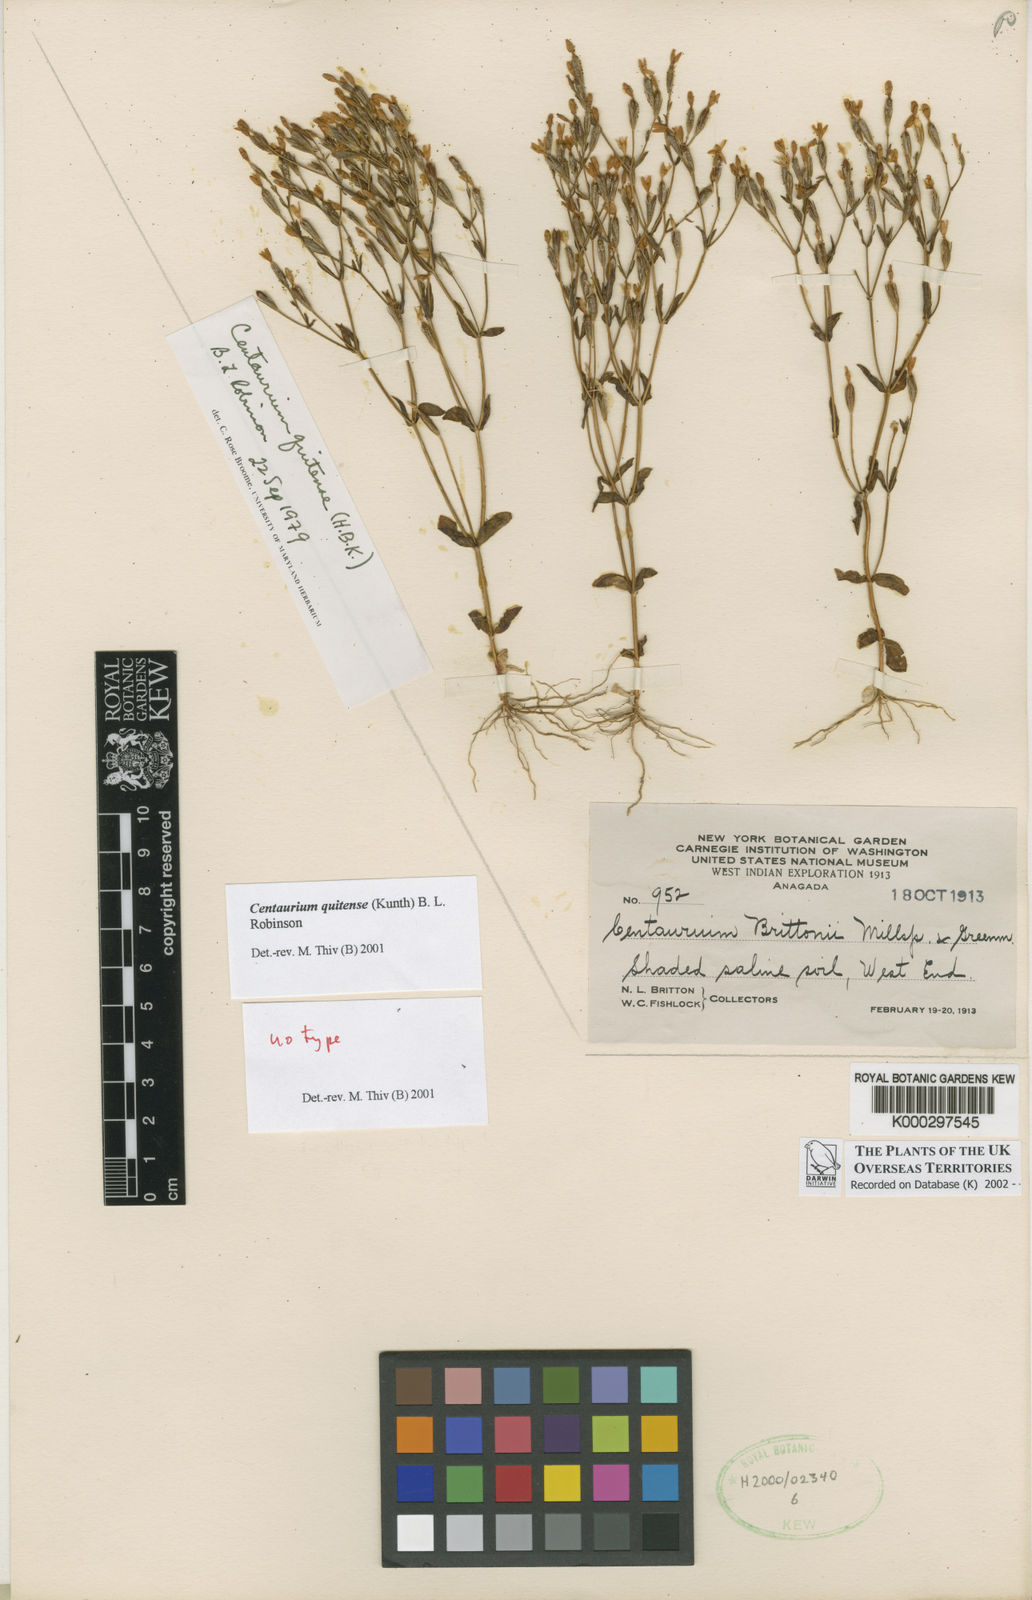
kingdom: Plantae
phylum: Tracheophyta
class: Magnoliopsida
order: Gentianales
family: Gentianaceae
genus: Zeltnera
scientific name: Zeltnera quitensis
